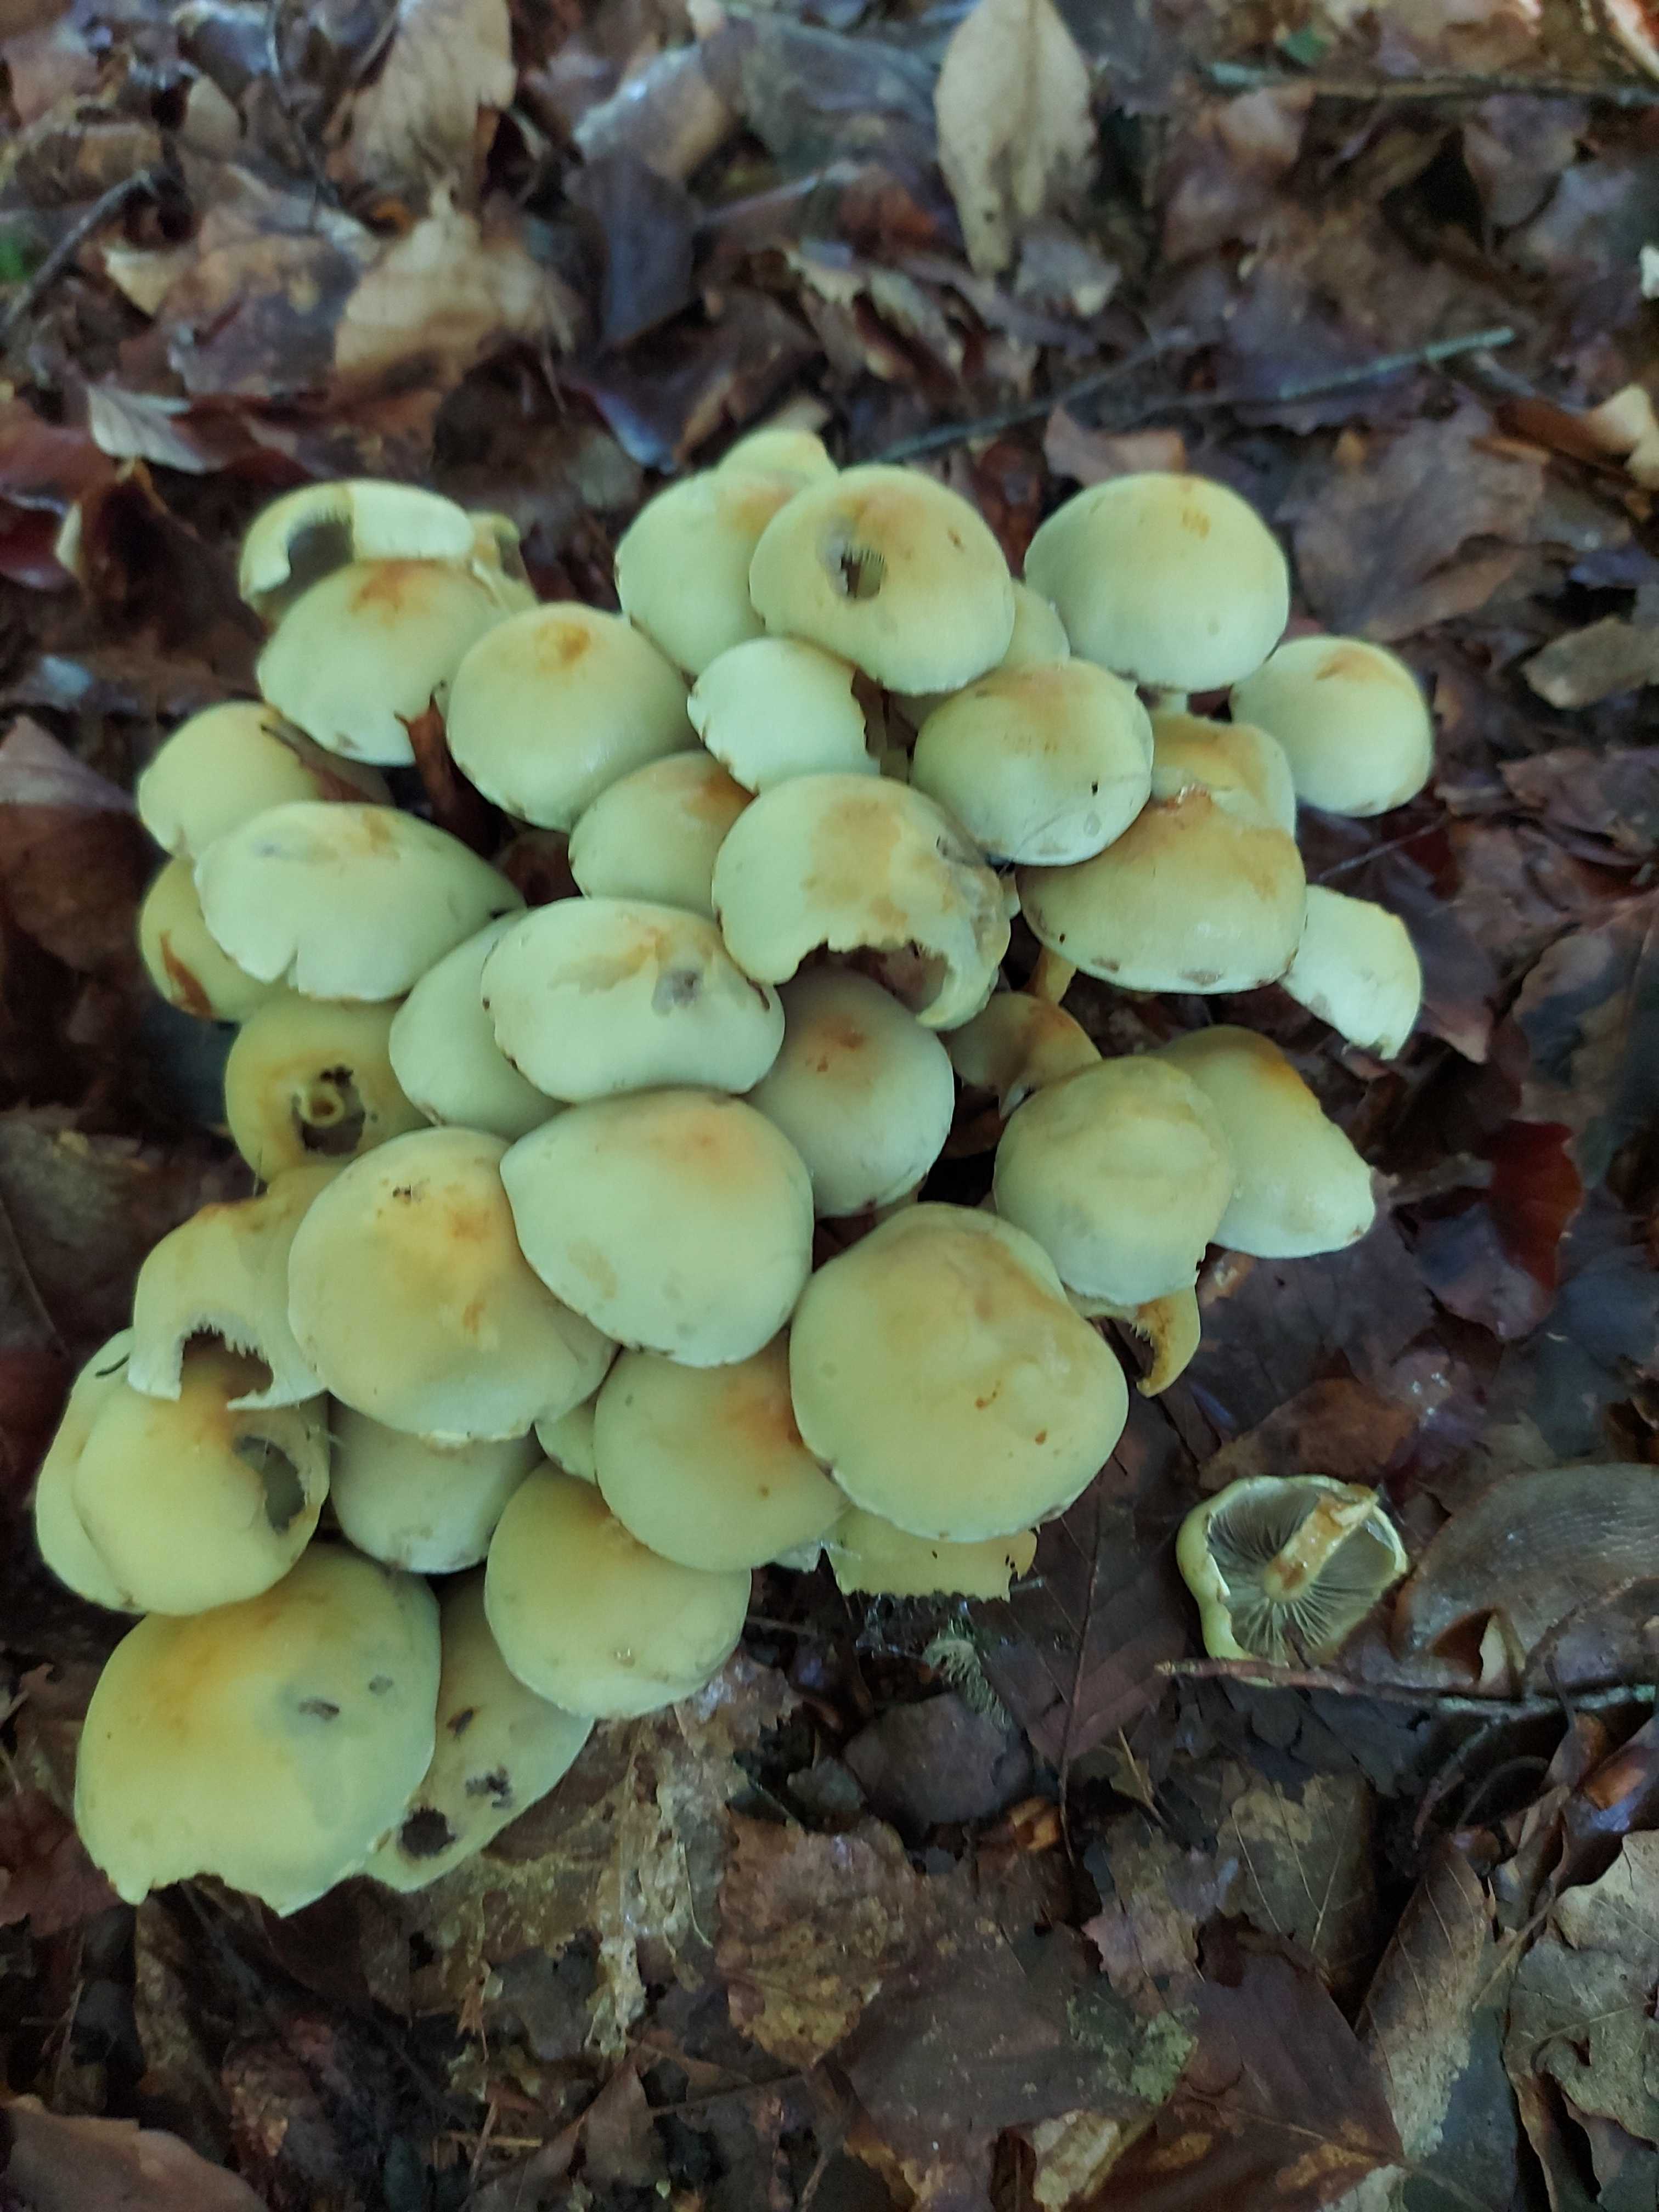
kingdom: Fungi
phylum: Basidiomycota
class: Agaricomycetes
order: Agaricales
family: Strophariaceae
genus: Hypholoma
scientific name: Hypholoma fasciculare
